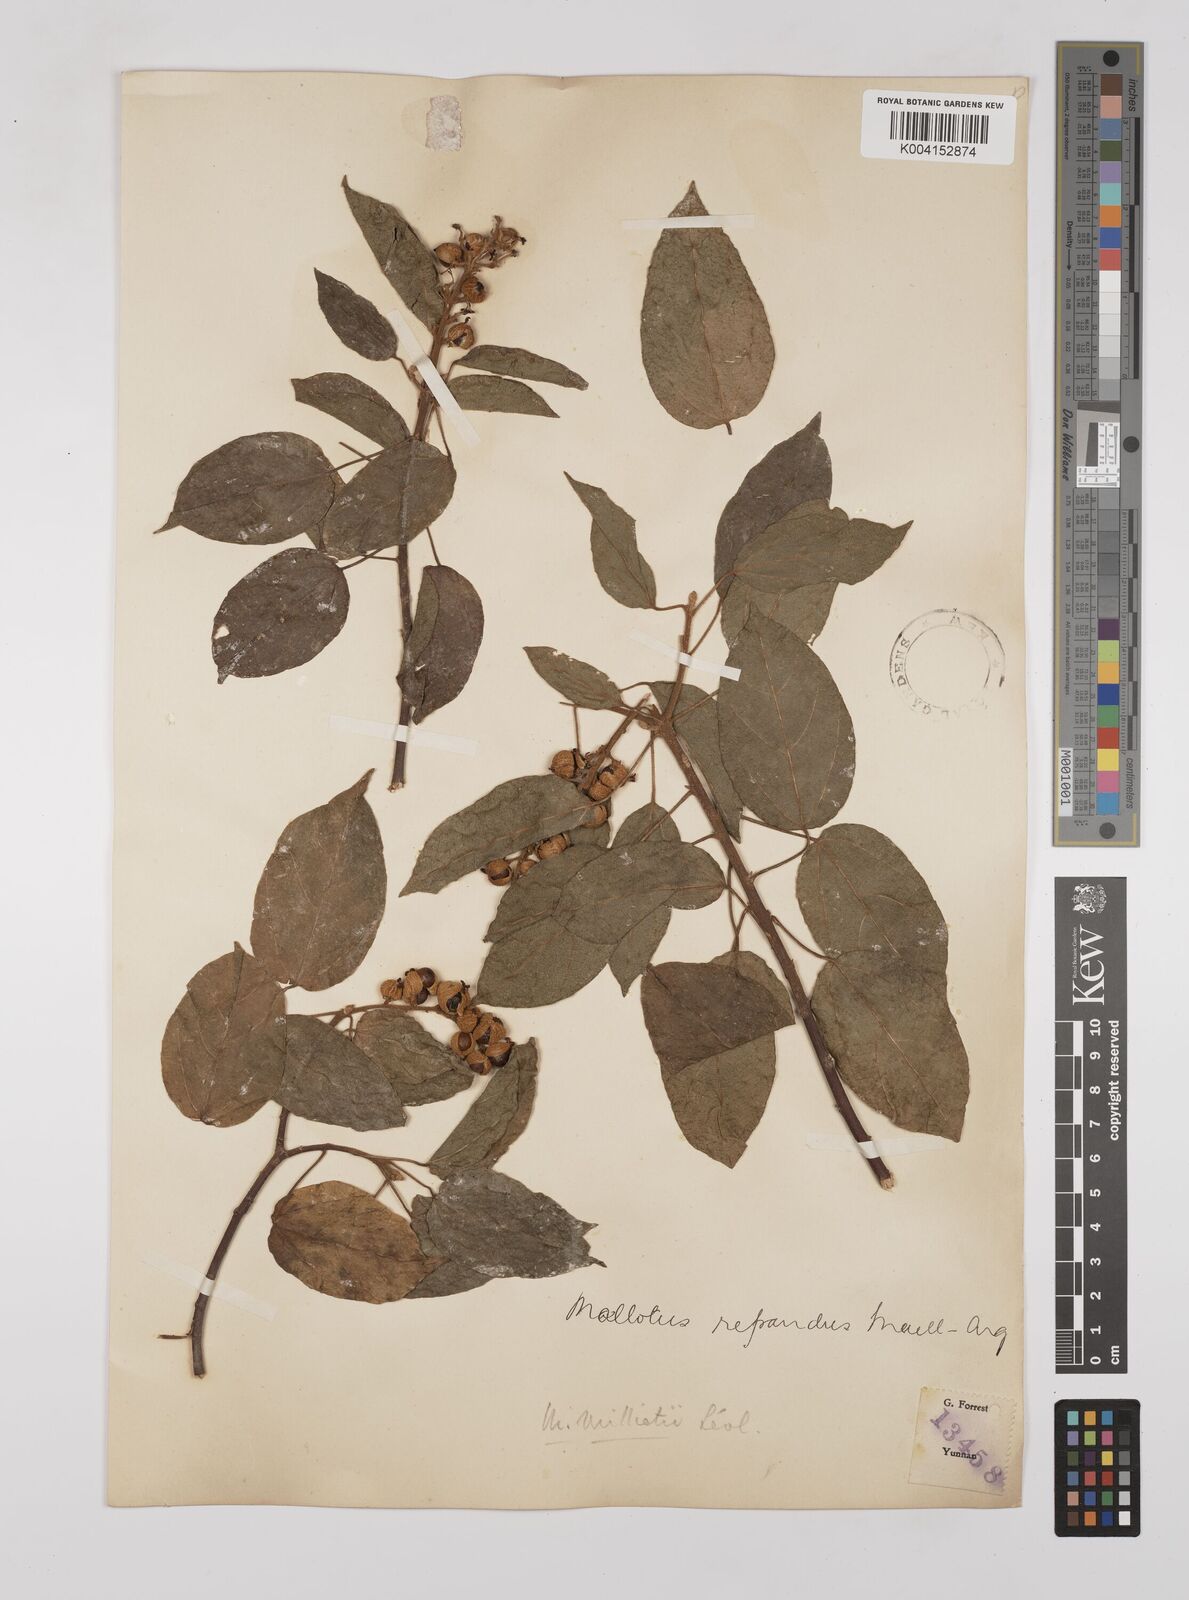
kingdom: Plantae
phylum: Tracheophyta
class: Magnoliopsida
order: Malpighiales
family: Euphorbiaceae
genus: Mallotus
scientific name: Mallotus millietii
